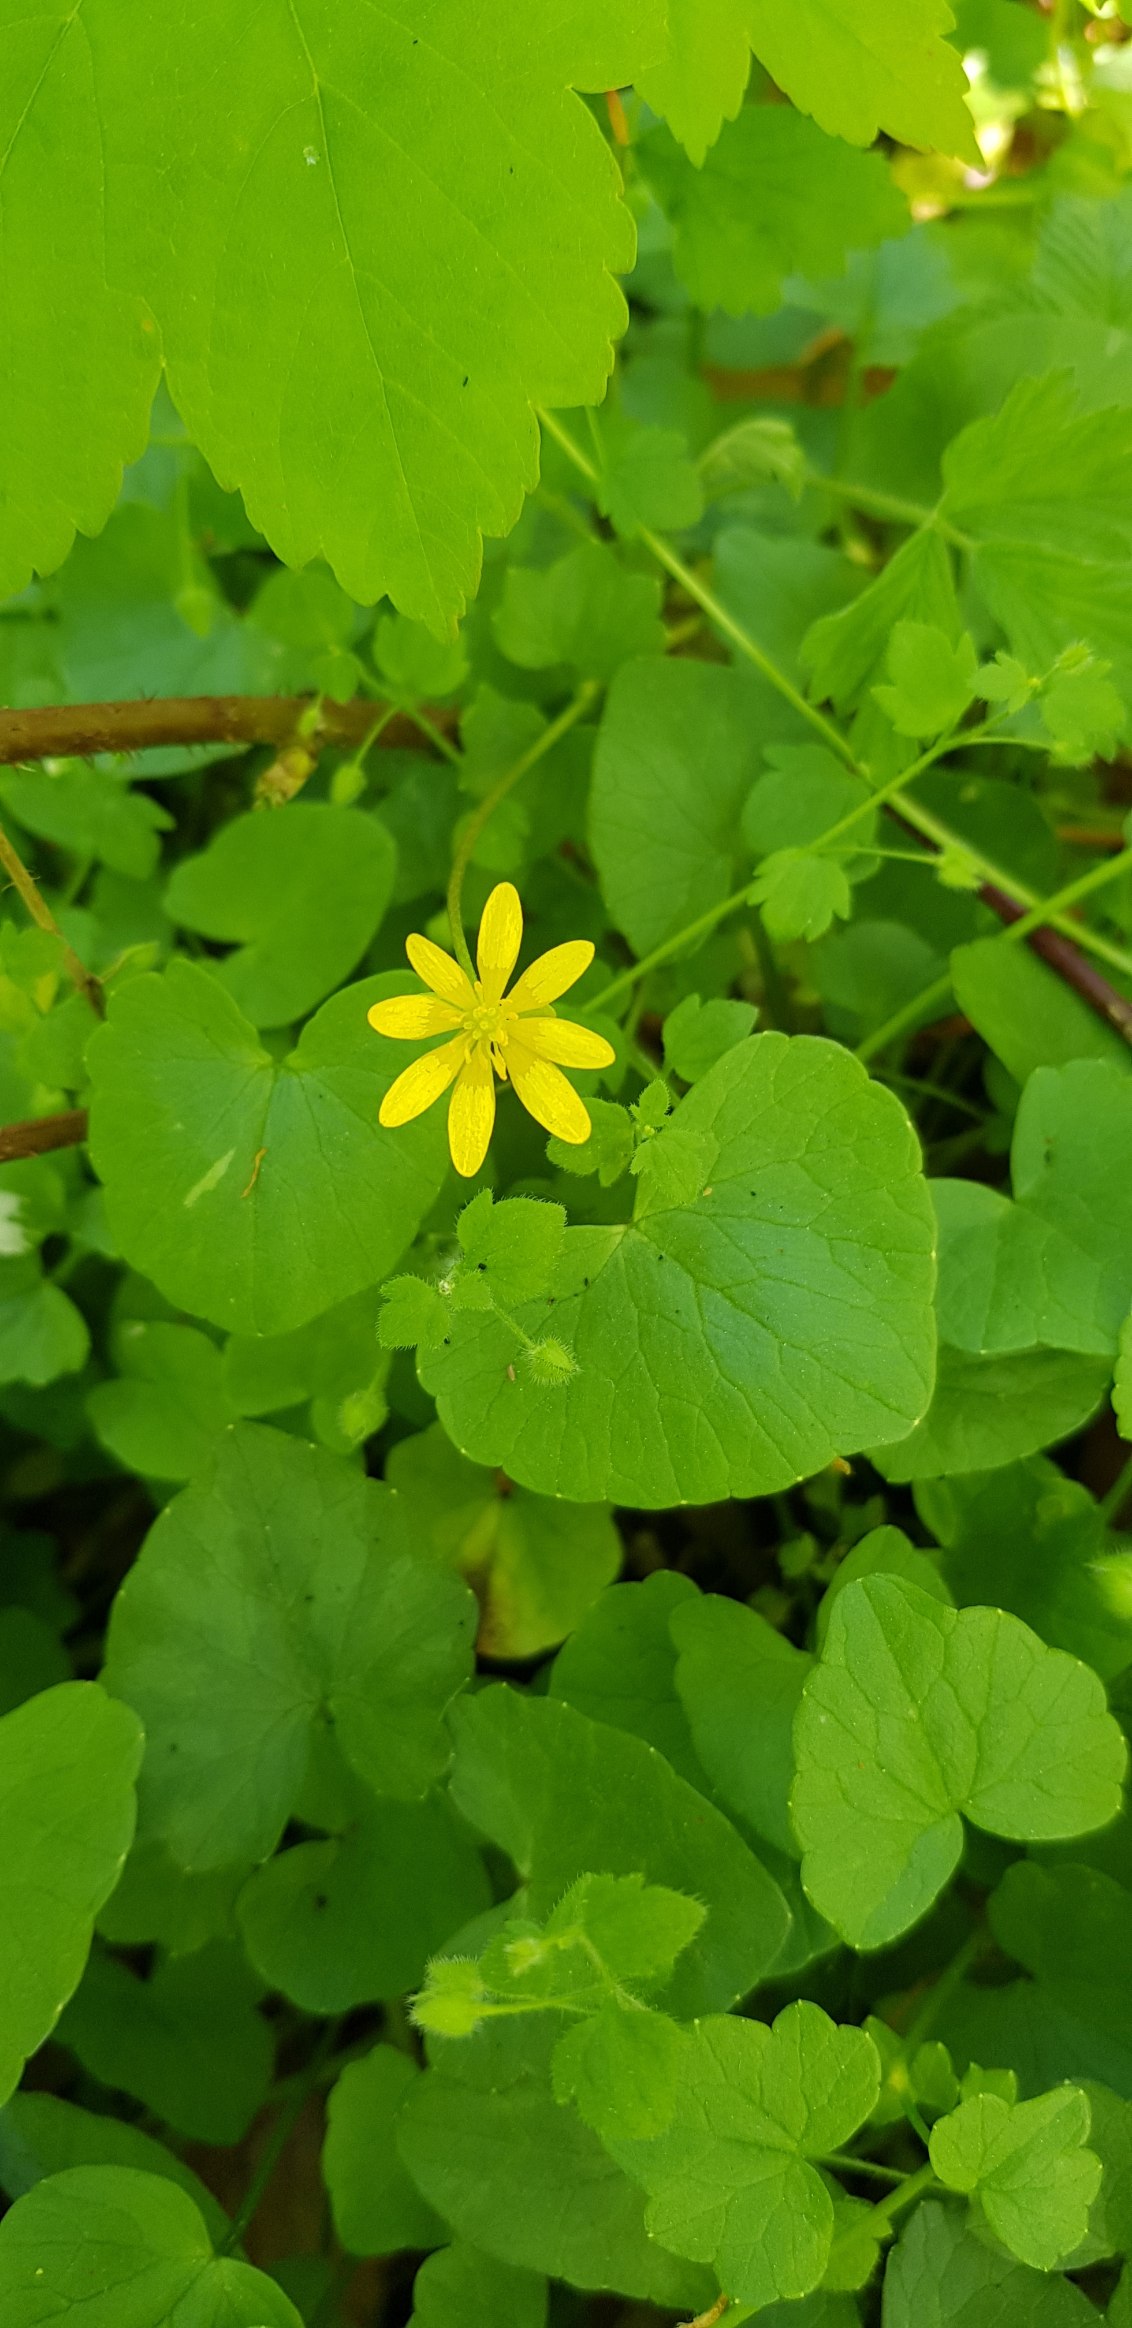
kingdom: Plantae
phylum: Tracheophyta
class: Magnoliopsida
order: Ranunculales
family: Ranunculaceae
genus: Ficaria
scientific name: Ficaria verna
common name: Vorterod
